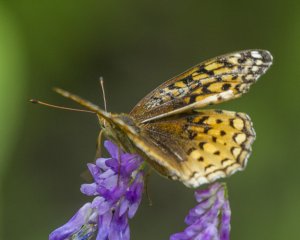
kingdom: Animalia
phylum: Arthropoda
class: Insecta
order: Lepidoptera
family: Nymphalidae
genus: Speyeria
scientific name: Speyeria cybele
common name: Great Spangled Fritillary
